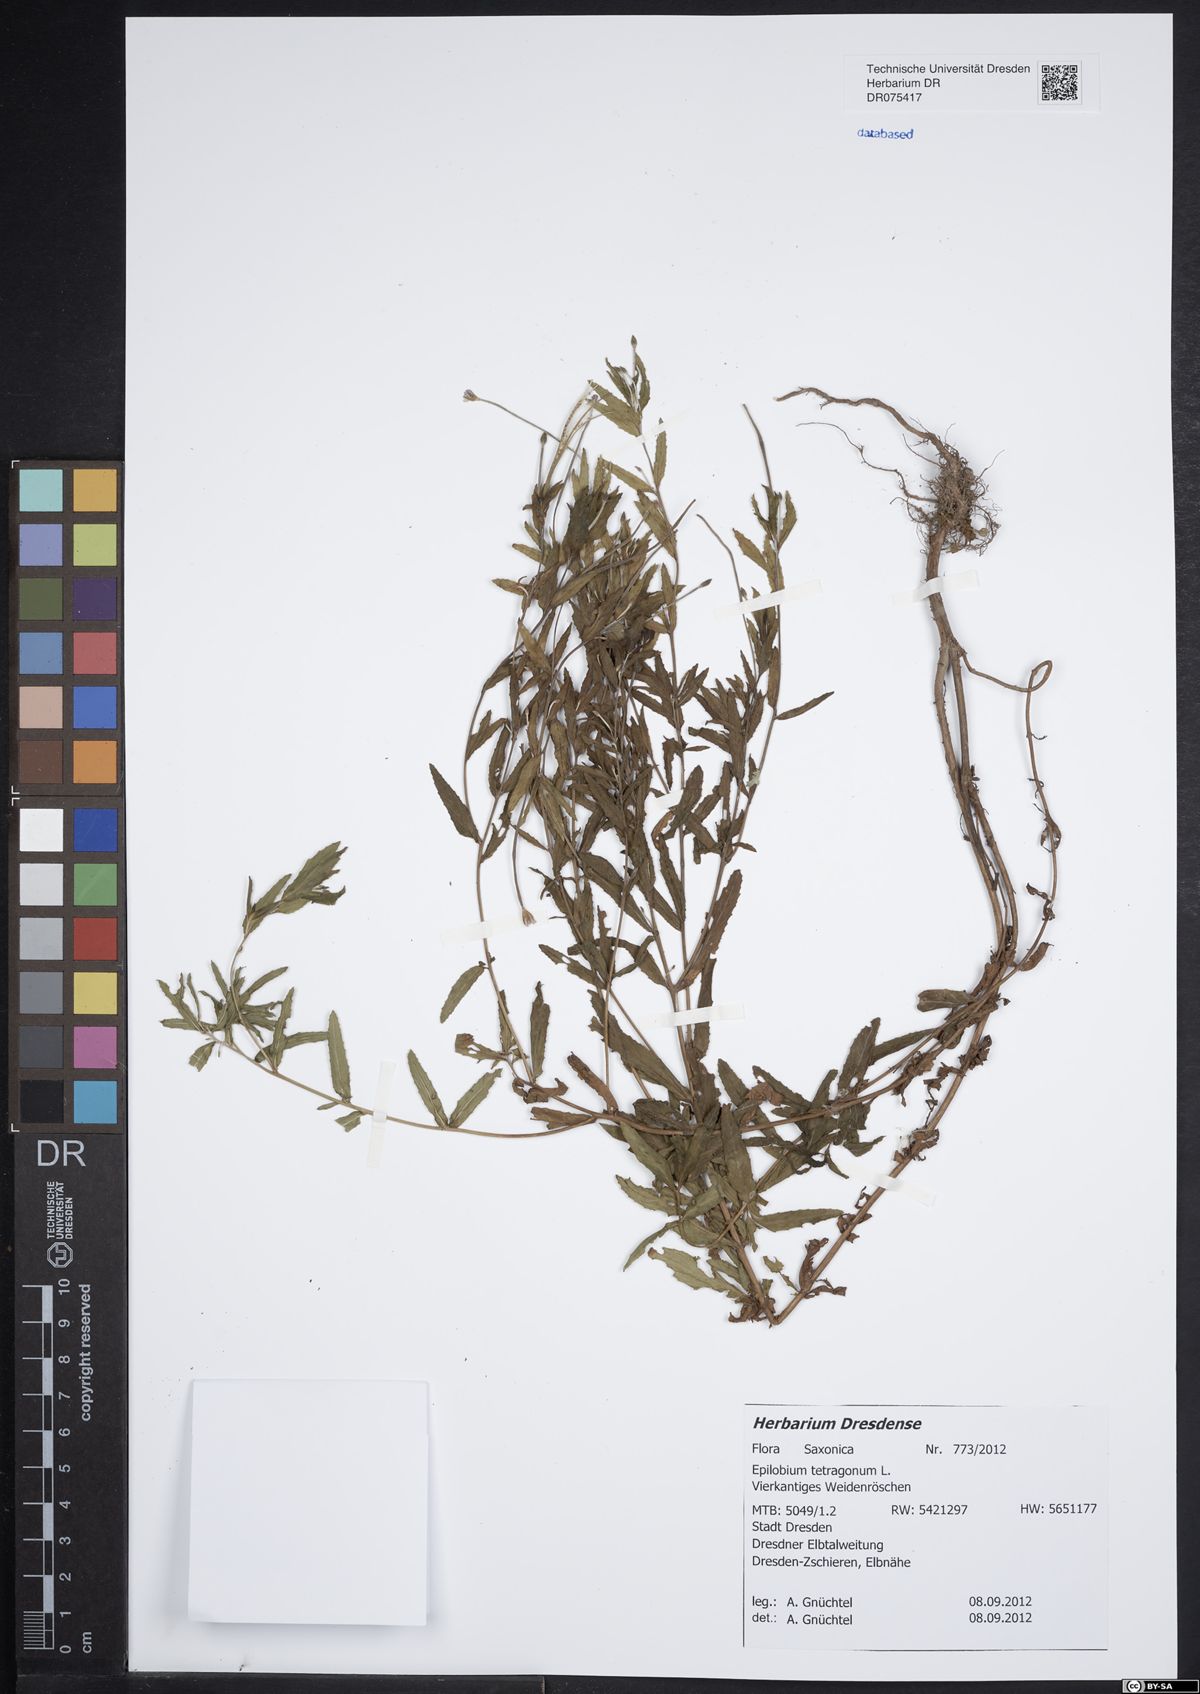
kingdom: Plantae
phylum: Tracheophyta
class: Magnoliopsida
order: Myrtales
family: Onagraceae
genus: Epilobium
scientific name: Epilobium tetragonum
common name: Square-stemmed willowherb
